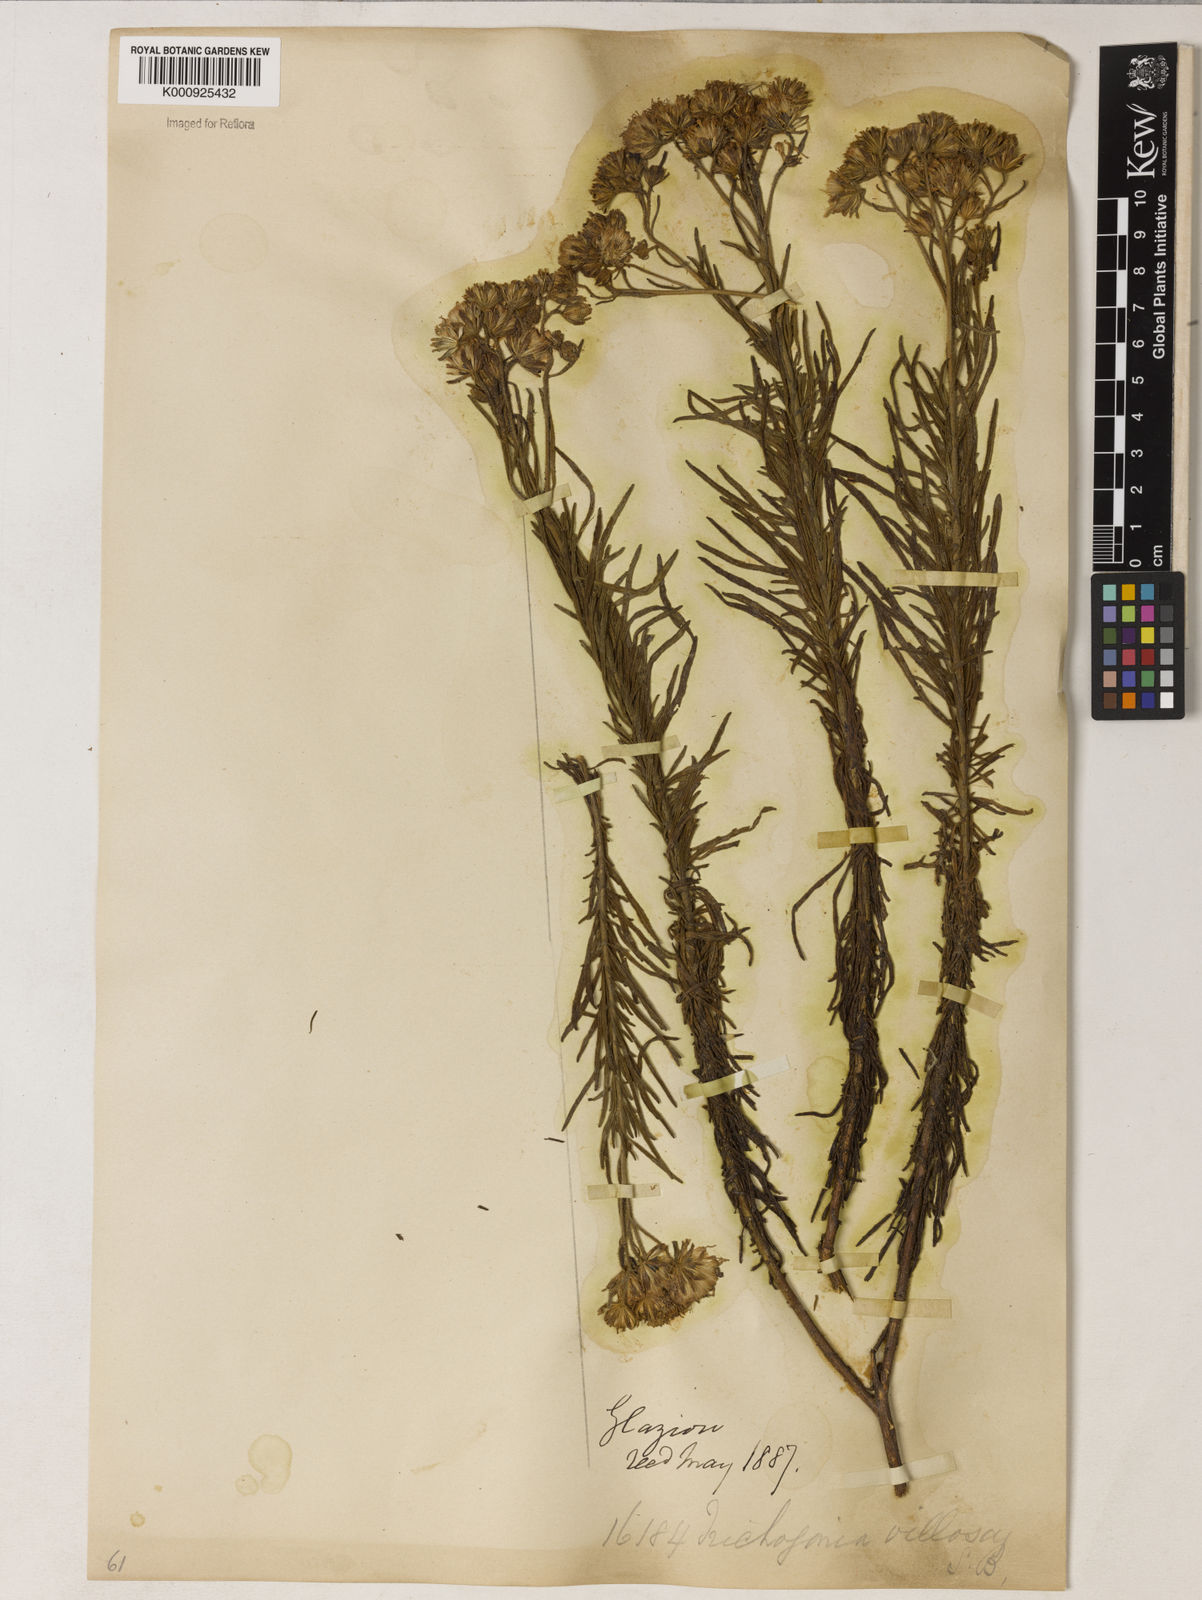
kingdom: Plantae
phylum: Tracheophyta
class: Magnoliopsida
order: Asterales
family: Asteraceae
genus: Trichogonia
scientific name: Trichogonia villosa
